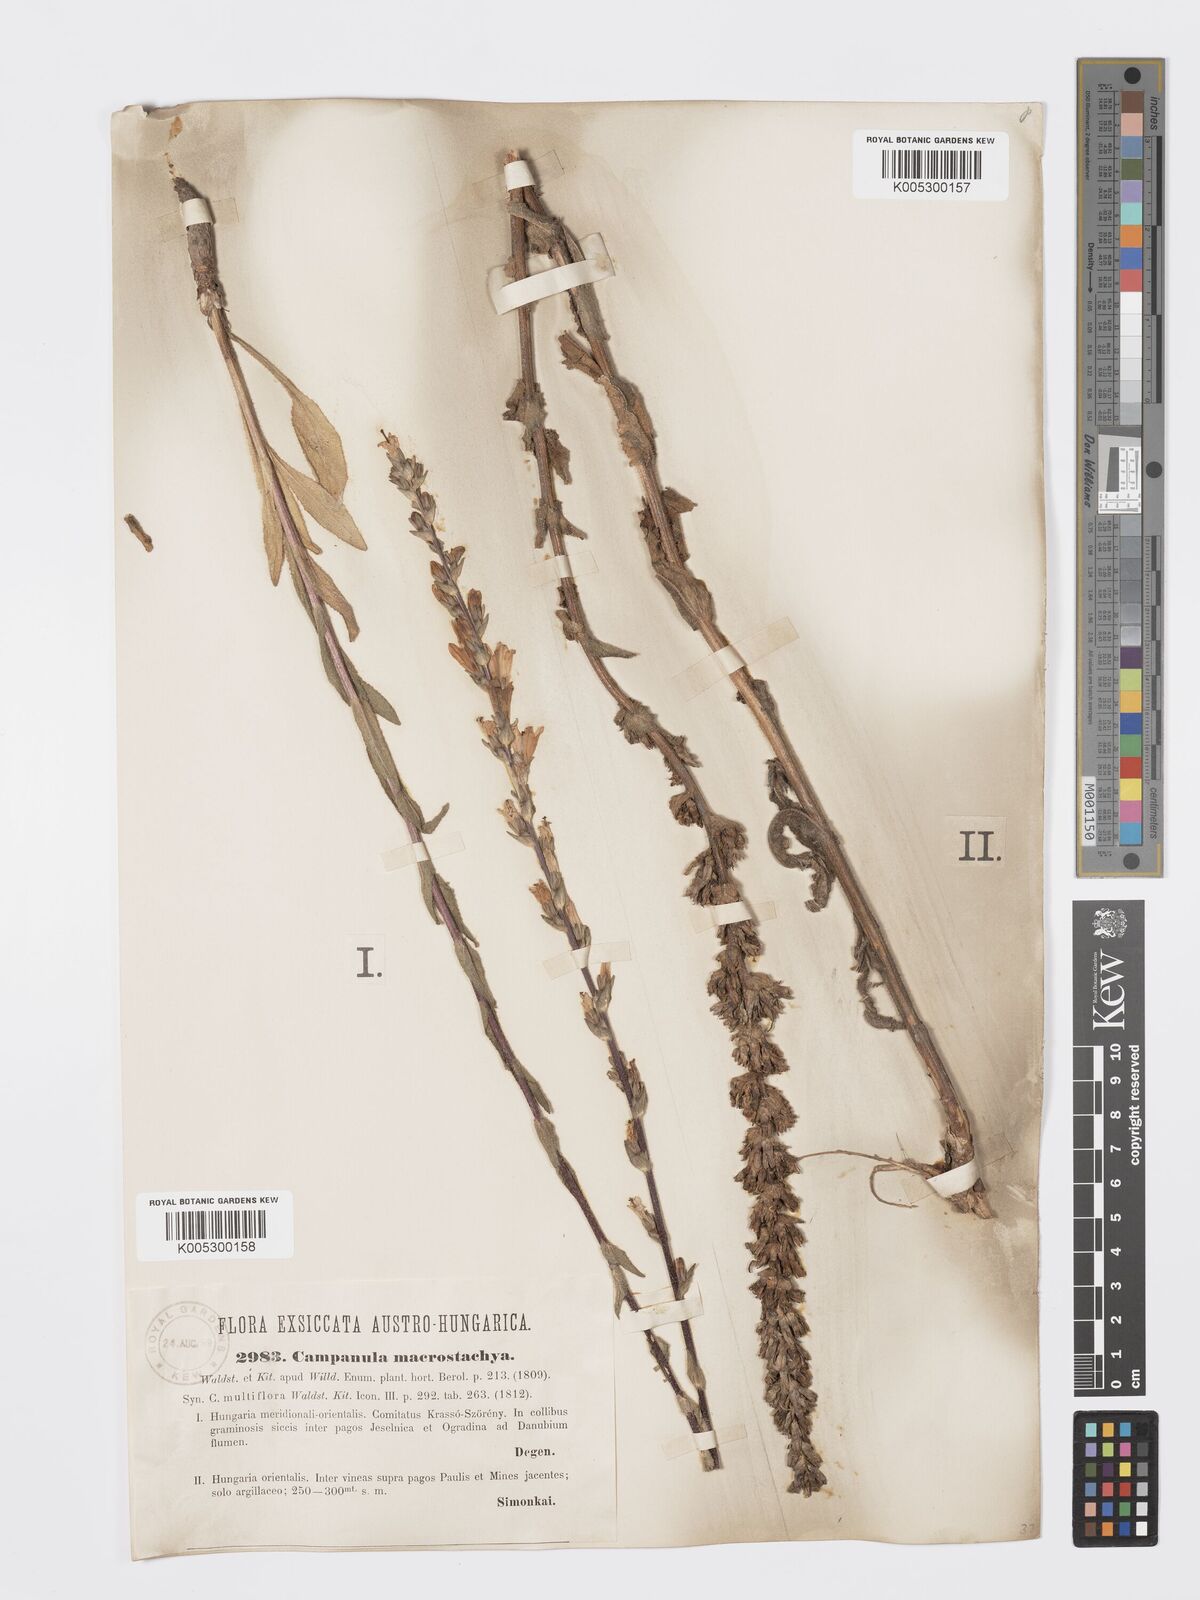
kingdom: Plantae
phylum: Tracheophyta
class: Magnoliopsida
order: Asterales
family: Campanulaceae
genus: Campanula
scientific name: Campanula macrostachya
